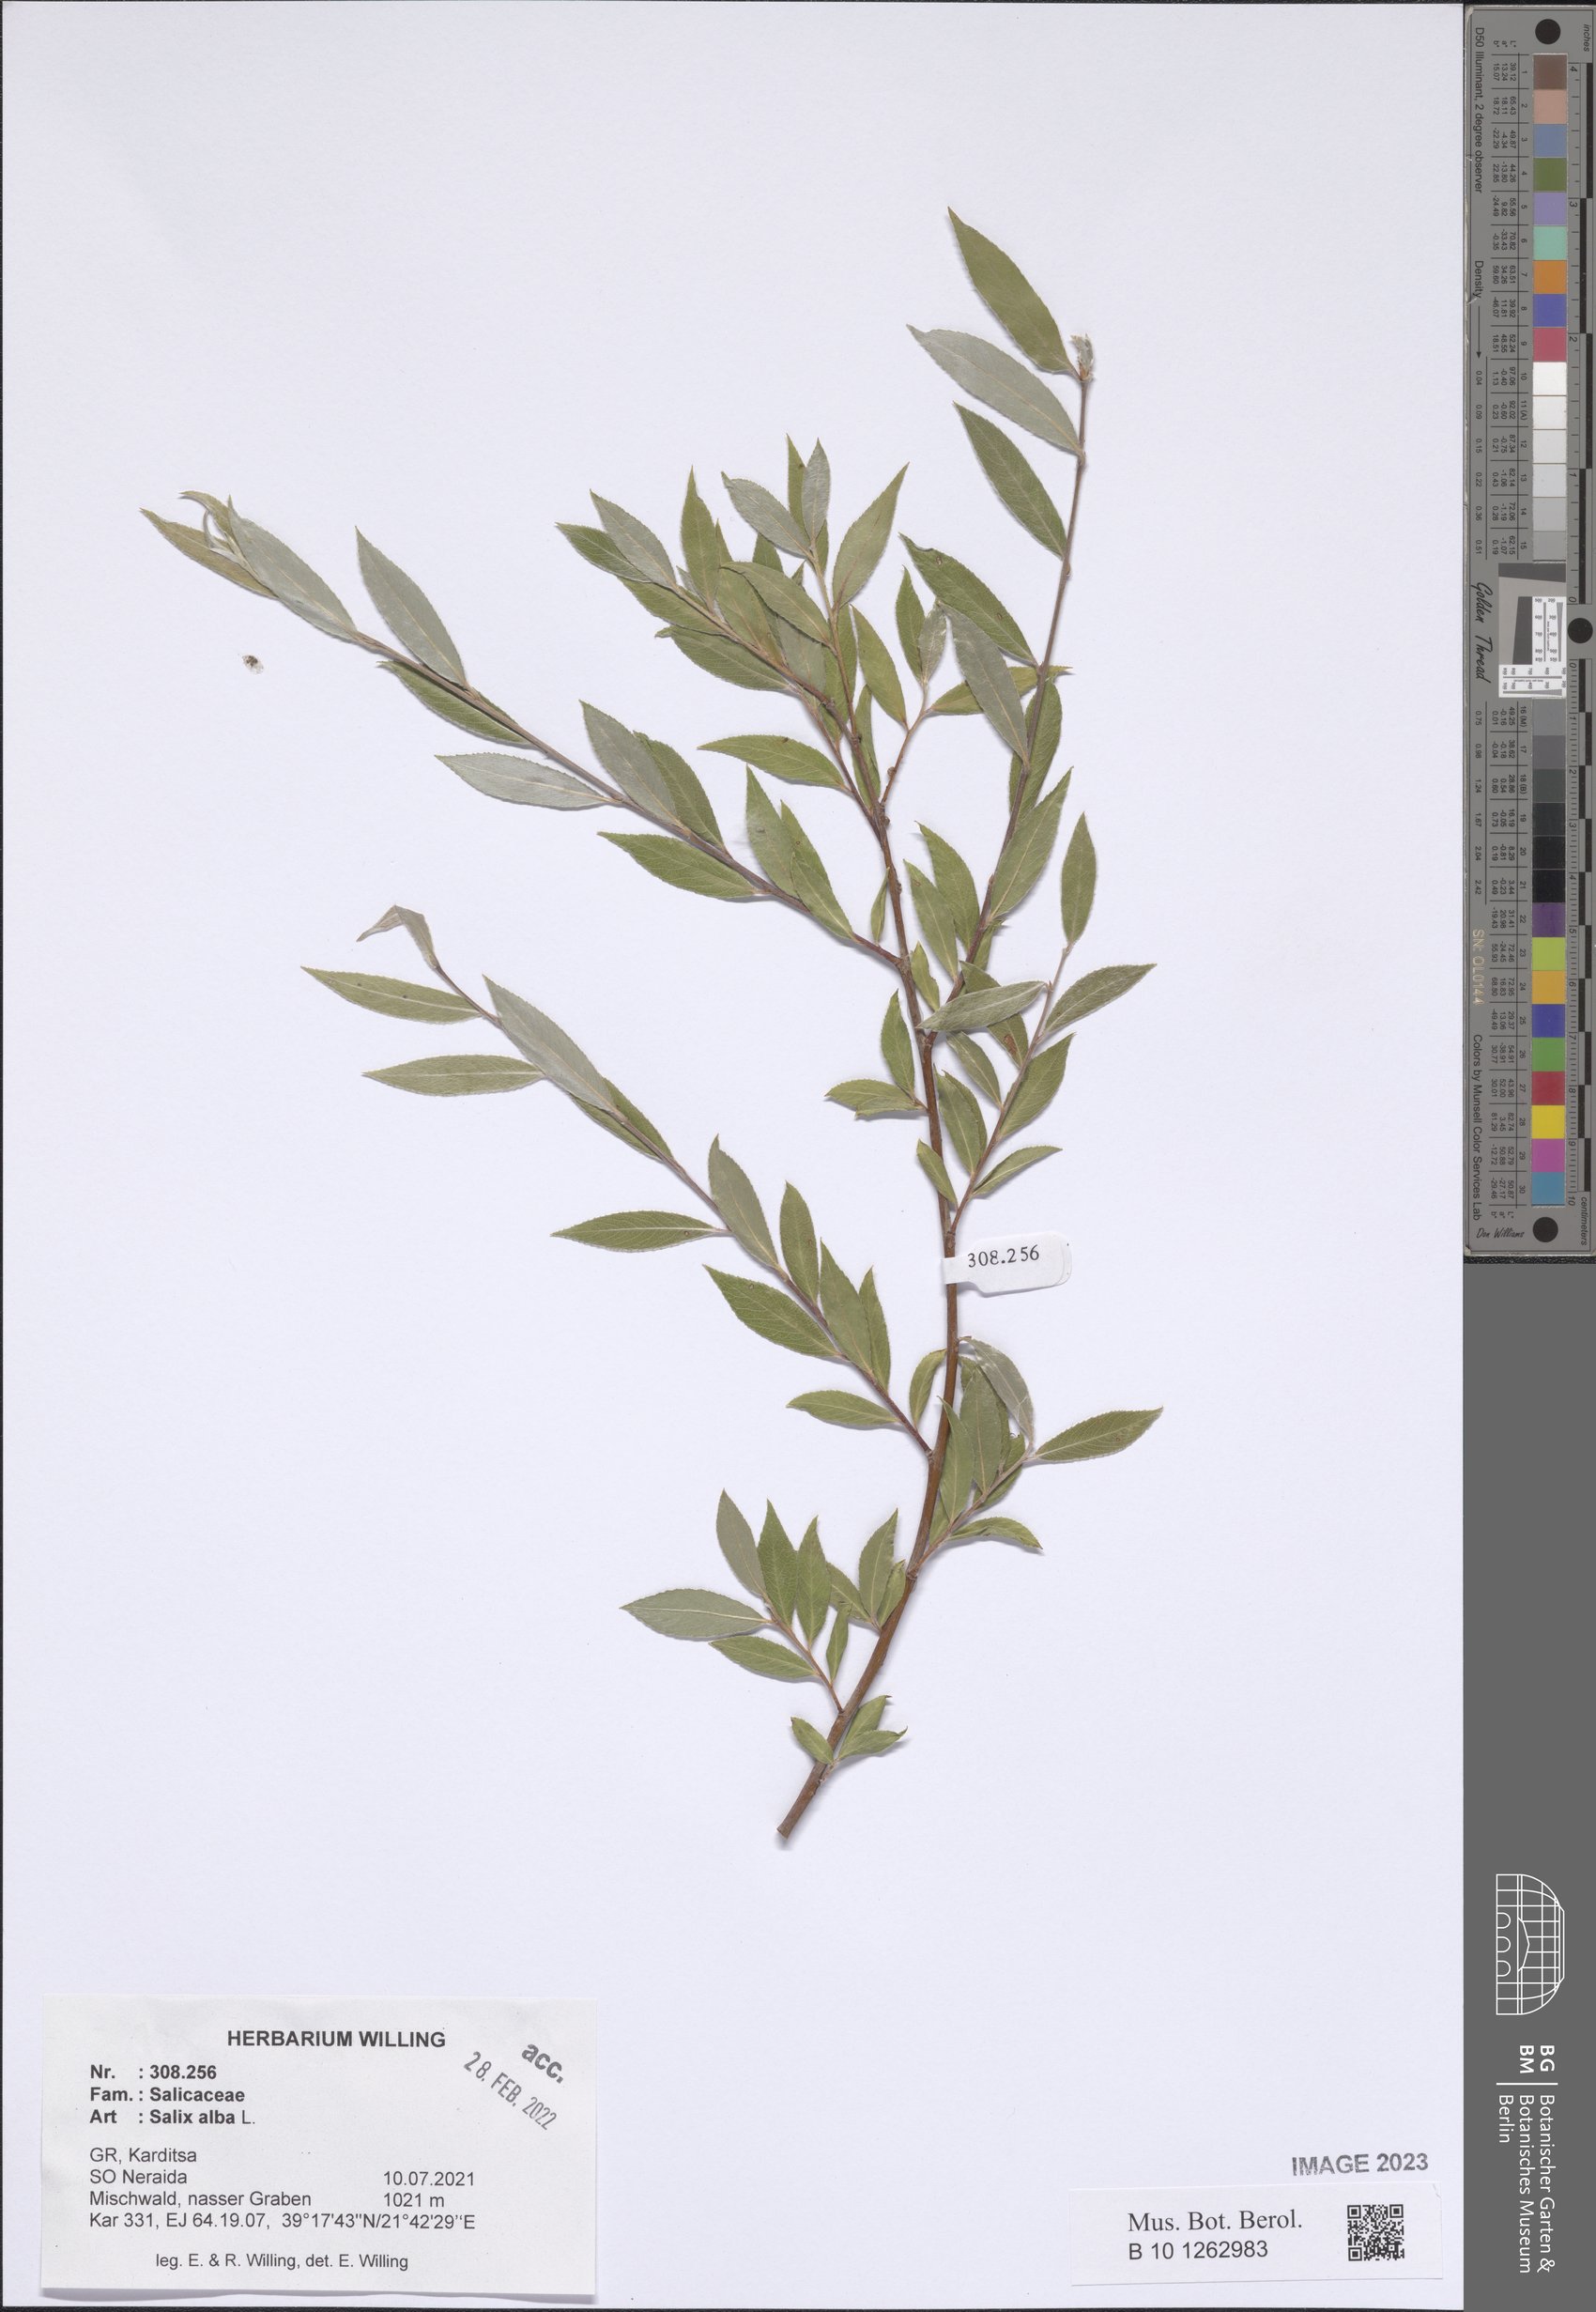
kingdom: Plantae
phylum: Tracheophyta
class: Magnoliopsida
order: Malpighiales
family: Salicaceae
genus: Salix
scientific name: Salix alba
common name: White willow
